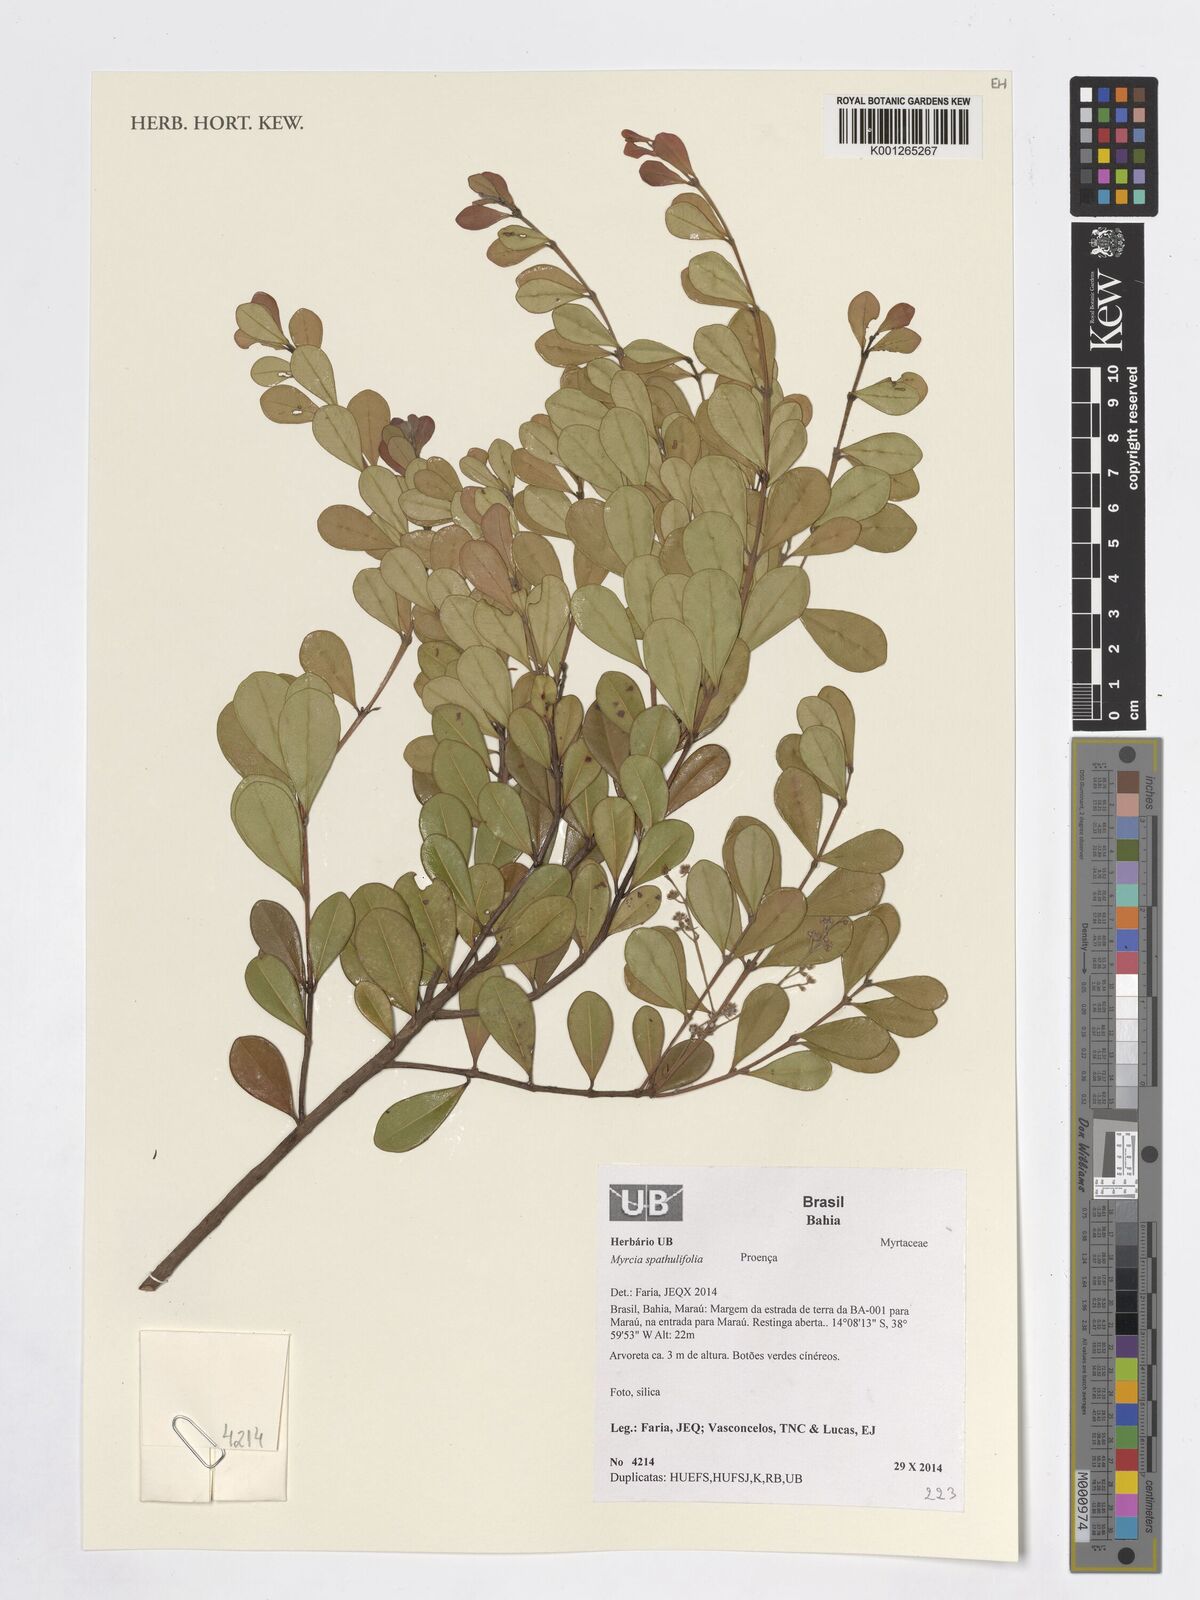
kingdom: Plantae
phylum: Tracheophyta
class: Magnoliopsida
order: Myrtales
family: Myrtaceae
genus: Myrcia
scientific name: Myrcia spathulifolia
